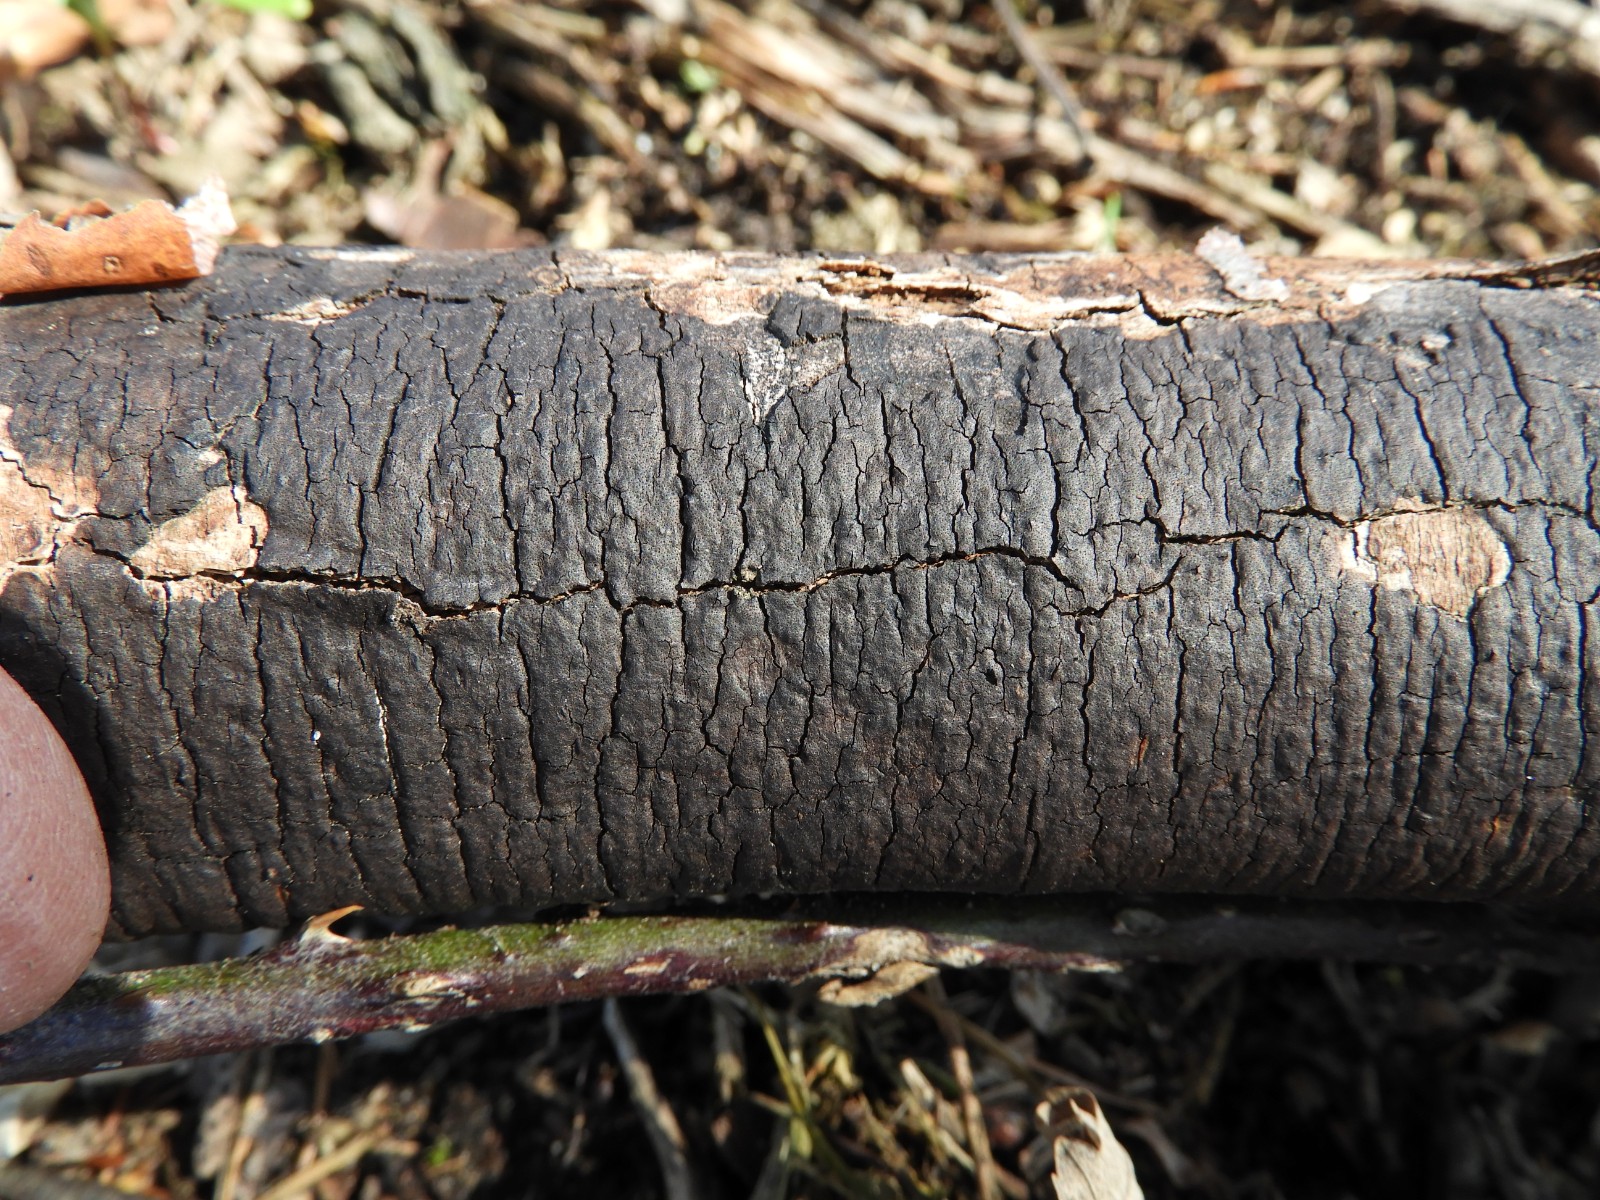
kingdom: Fungi
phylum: Ascomycota
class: Sordariomycetes
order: Xylariales
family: Diatrypaceae
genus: Diatrype
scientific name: Diatrype
